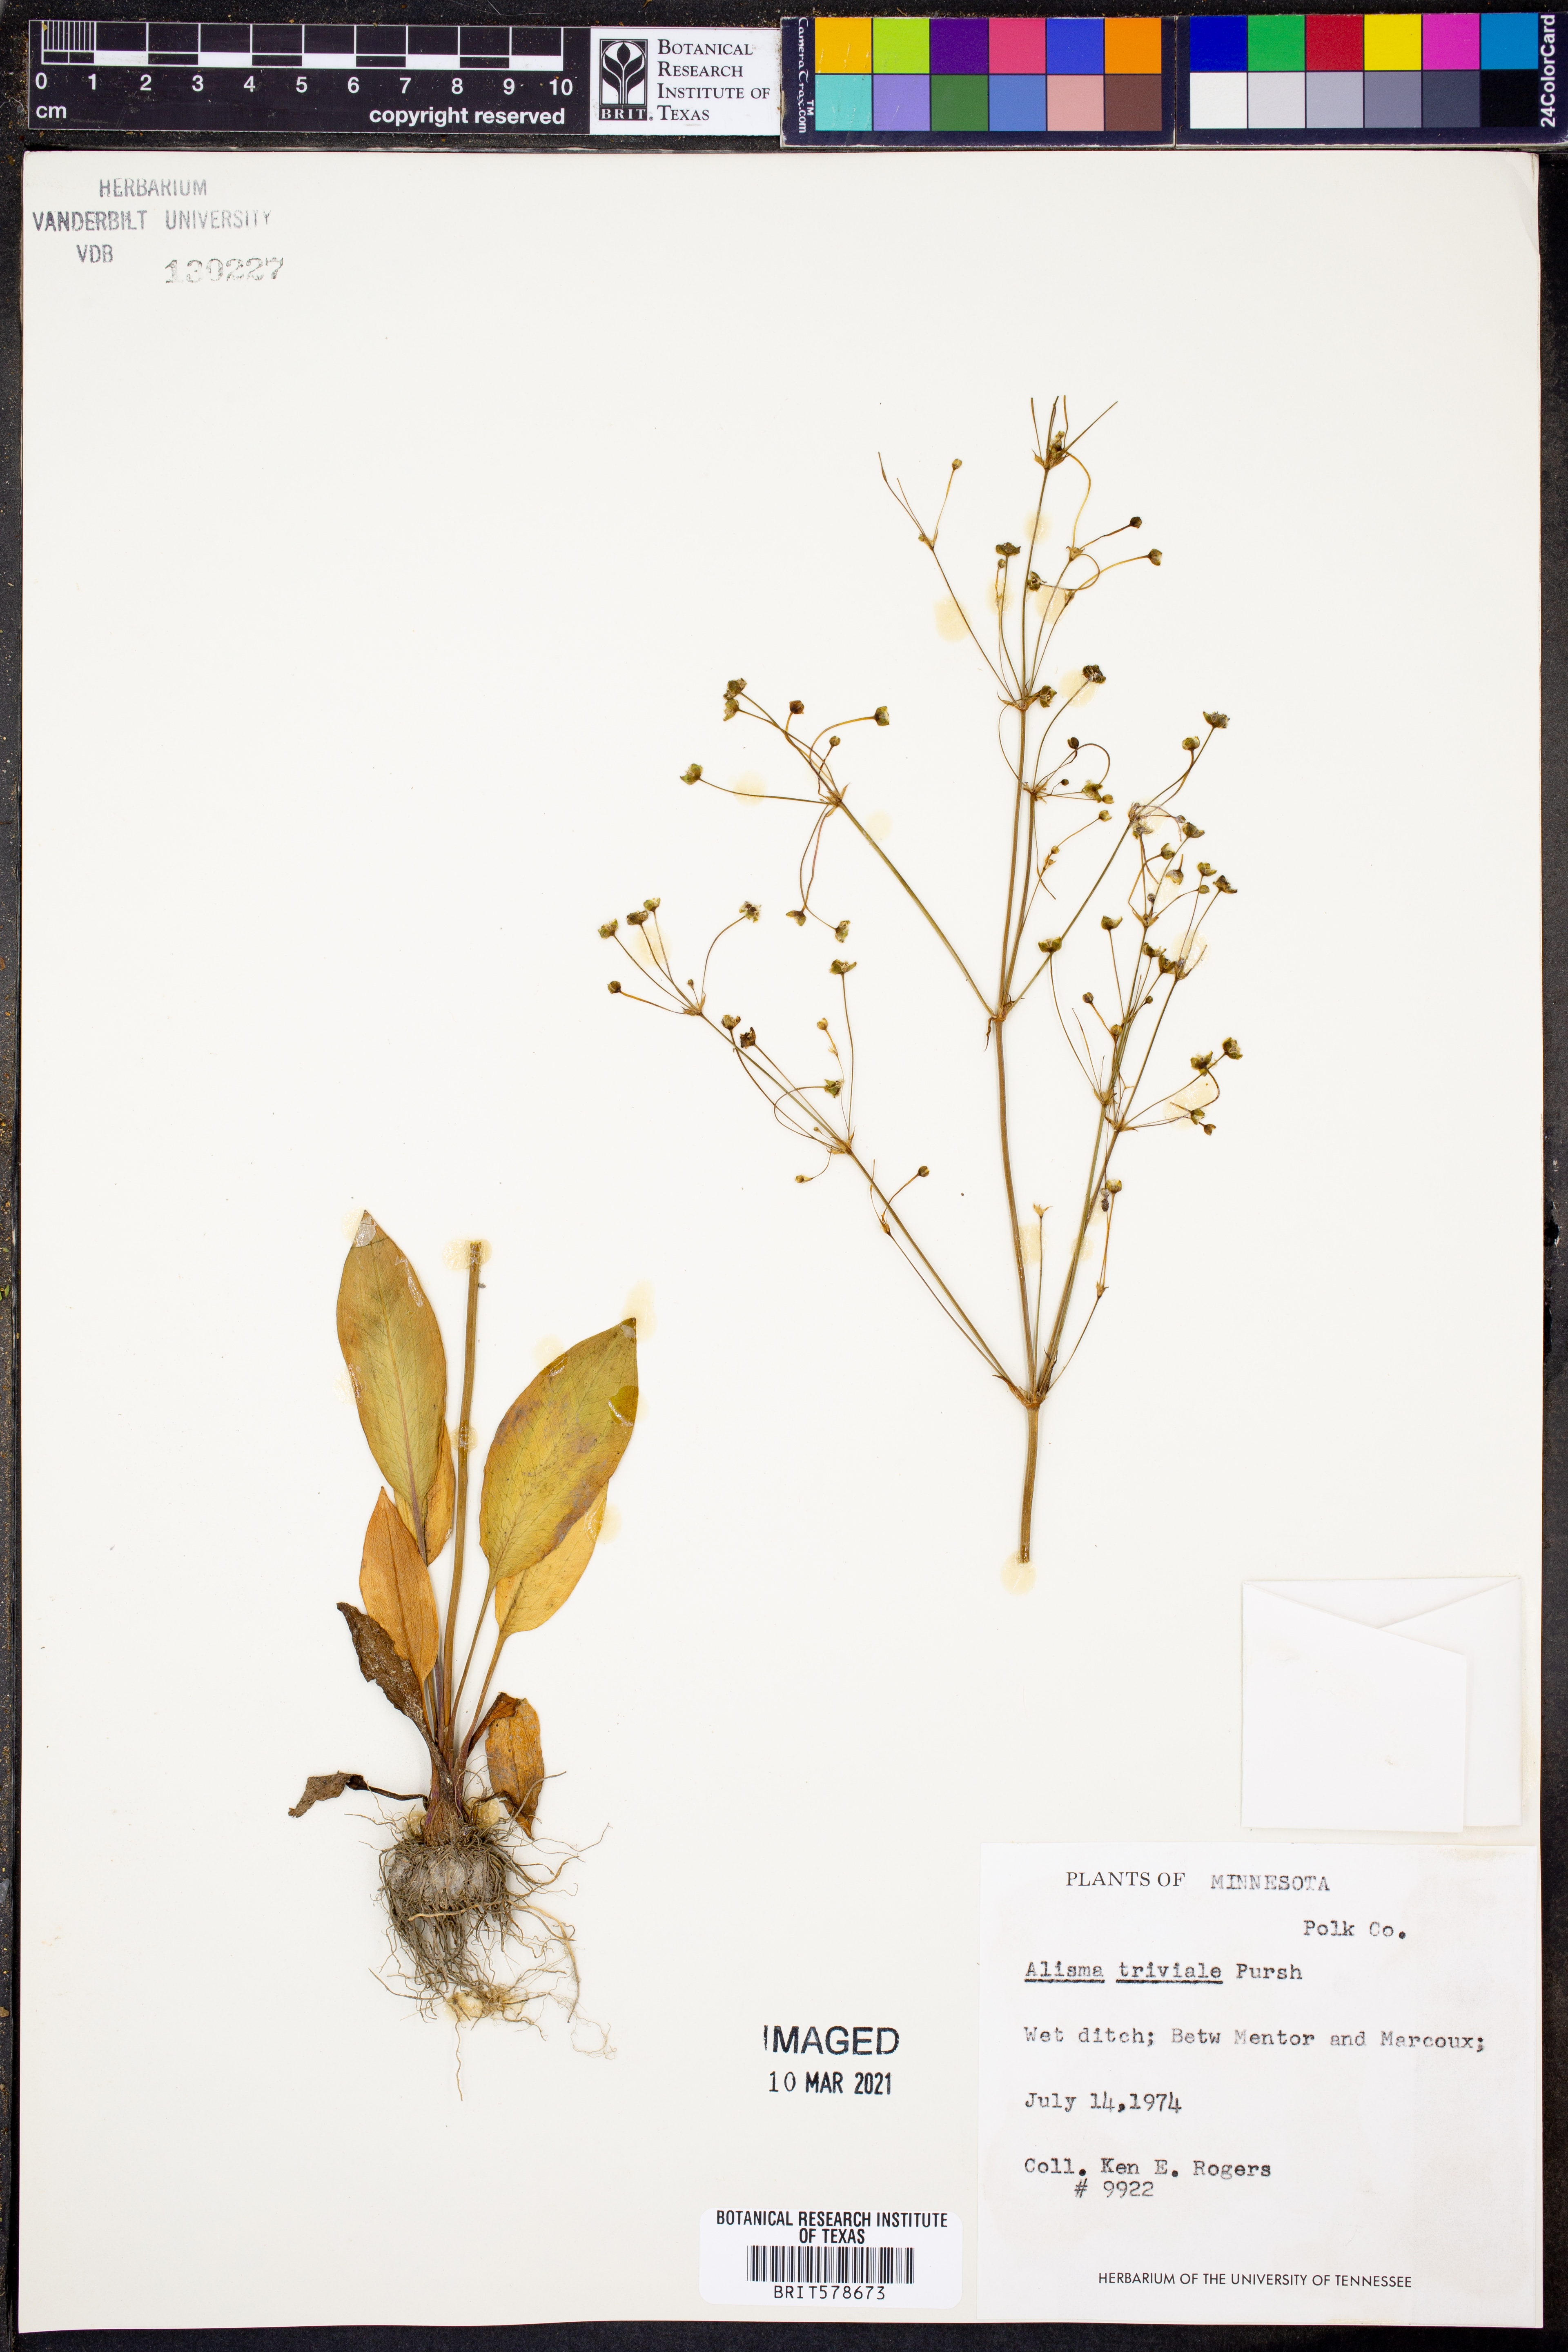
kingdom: Plantae
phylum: Tracheophyta
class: Liliopsida
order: Alismatales
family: Alismataceae
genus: Alisma
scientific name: Alisma triviale
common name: Northern water-plantain
